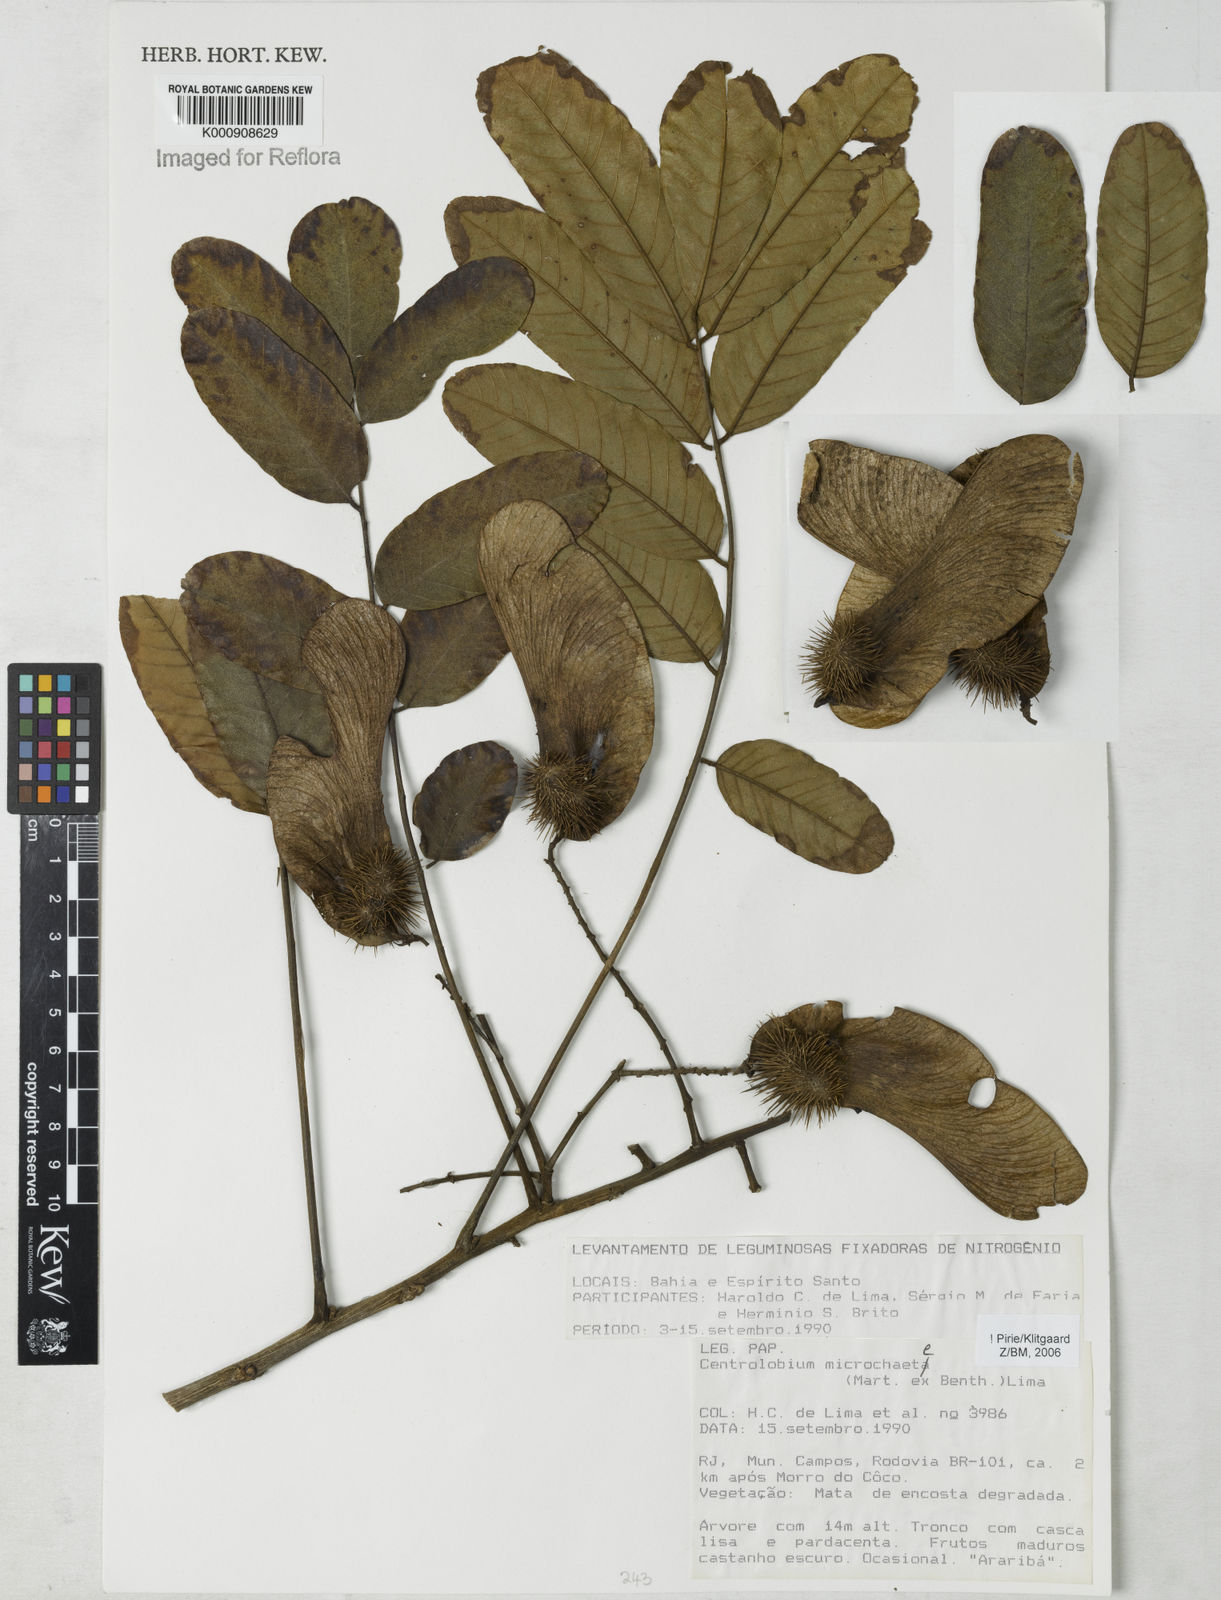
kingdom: Plantae
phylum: Tracheophyta
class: Magnoliopsida
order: Fabales
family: Fabaceae
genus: Centrolobium
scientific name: Centrolobium microchaete
